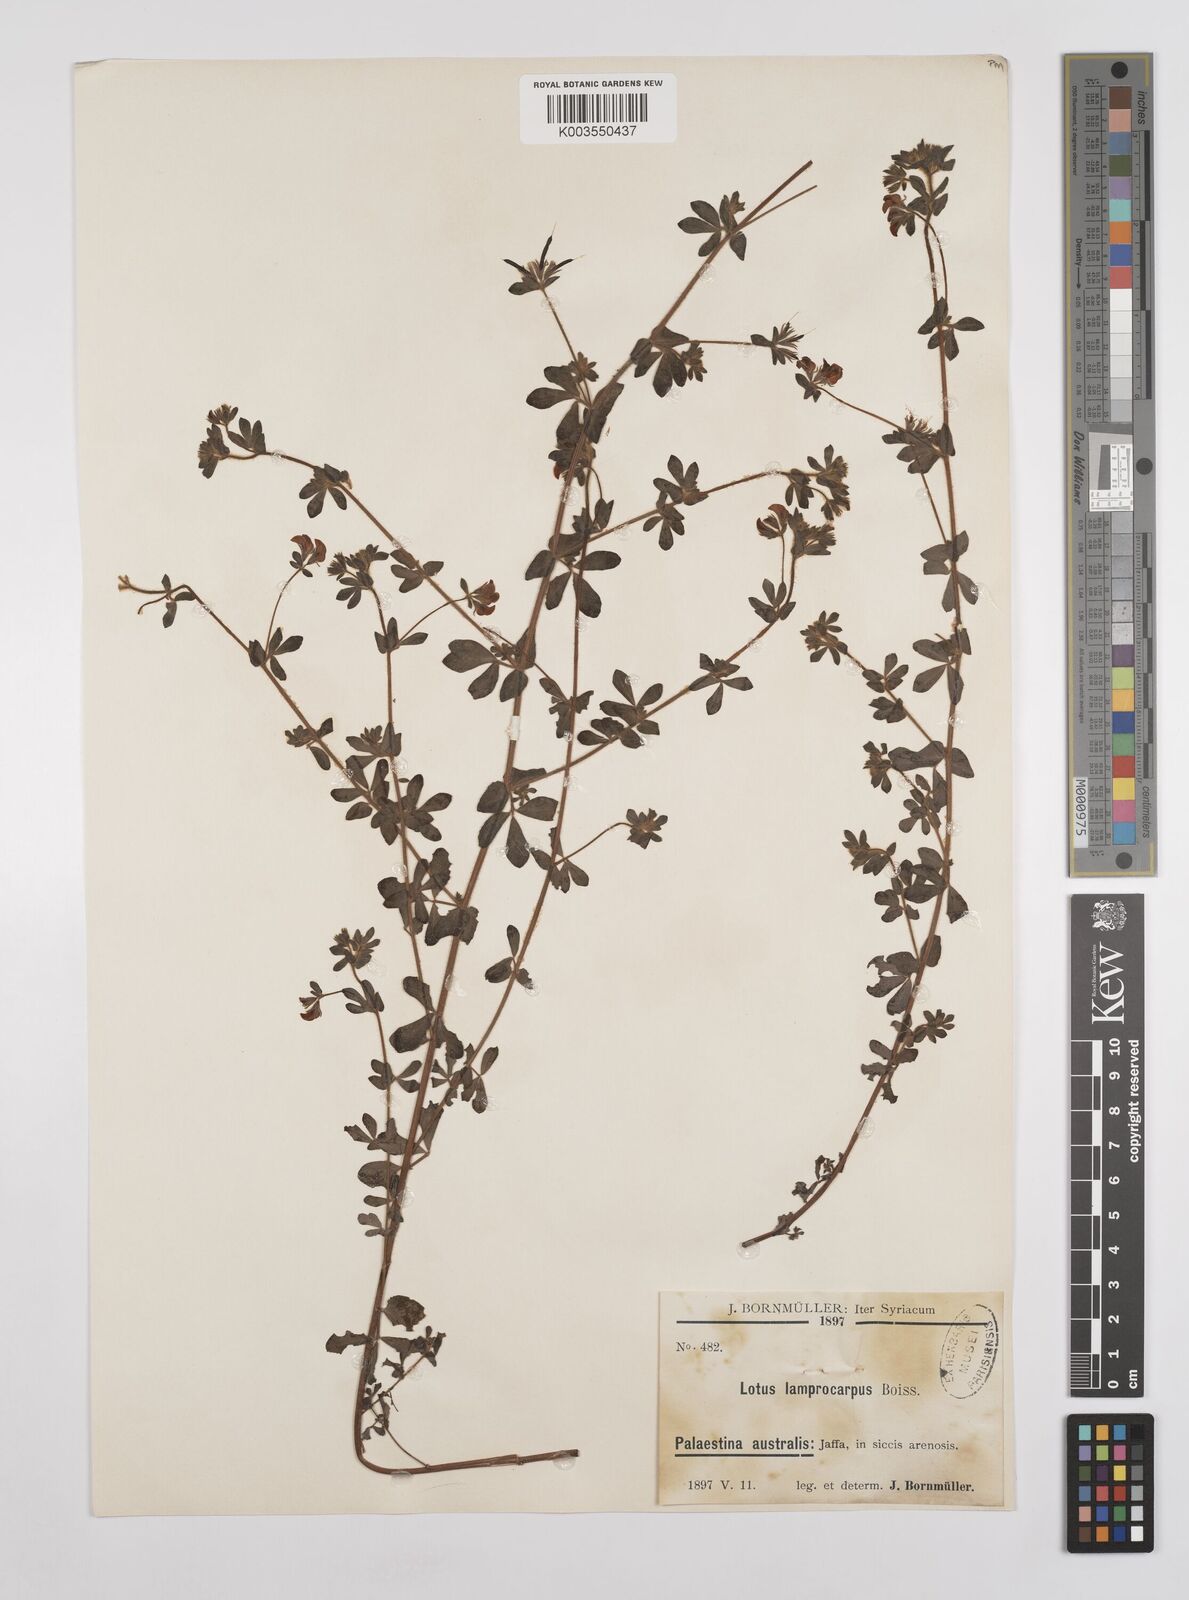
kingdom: Plantae
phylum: Tracheophyta
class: Magnoliopsida
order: Fabales
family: Fabaceae
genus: Lotus
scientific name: Lotus palustris
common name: Large birds-foot trefoil
